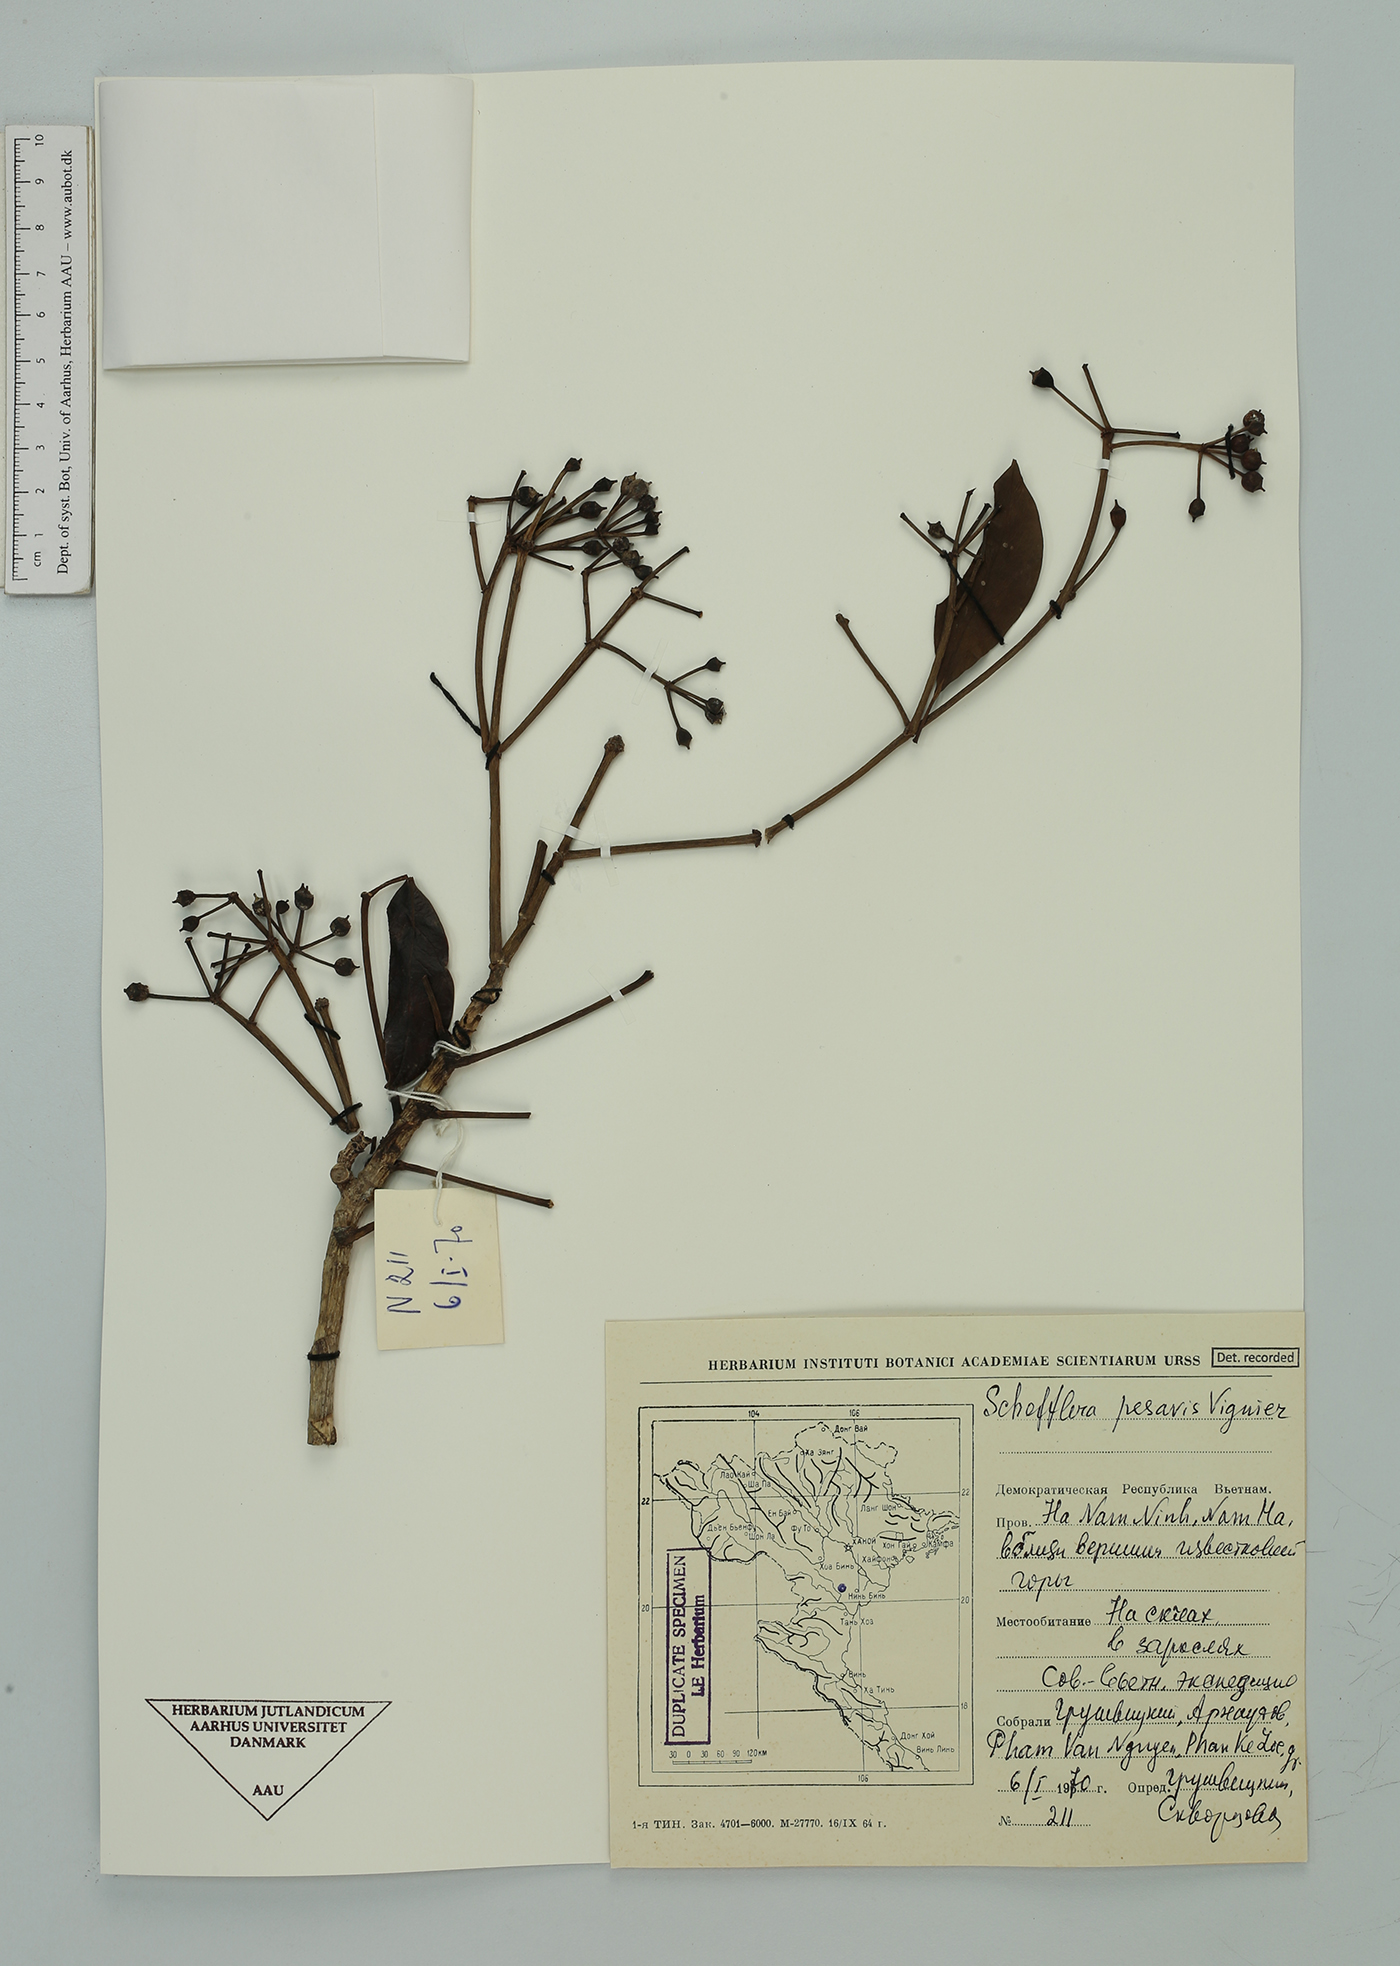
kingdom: Plantae
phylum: Tracheophyta
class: Magnoliopsida
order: Apiales
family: Araliaceae
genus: Heptapleurum
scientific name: Heptapleurum pes-avis
